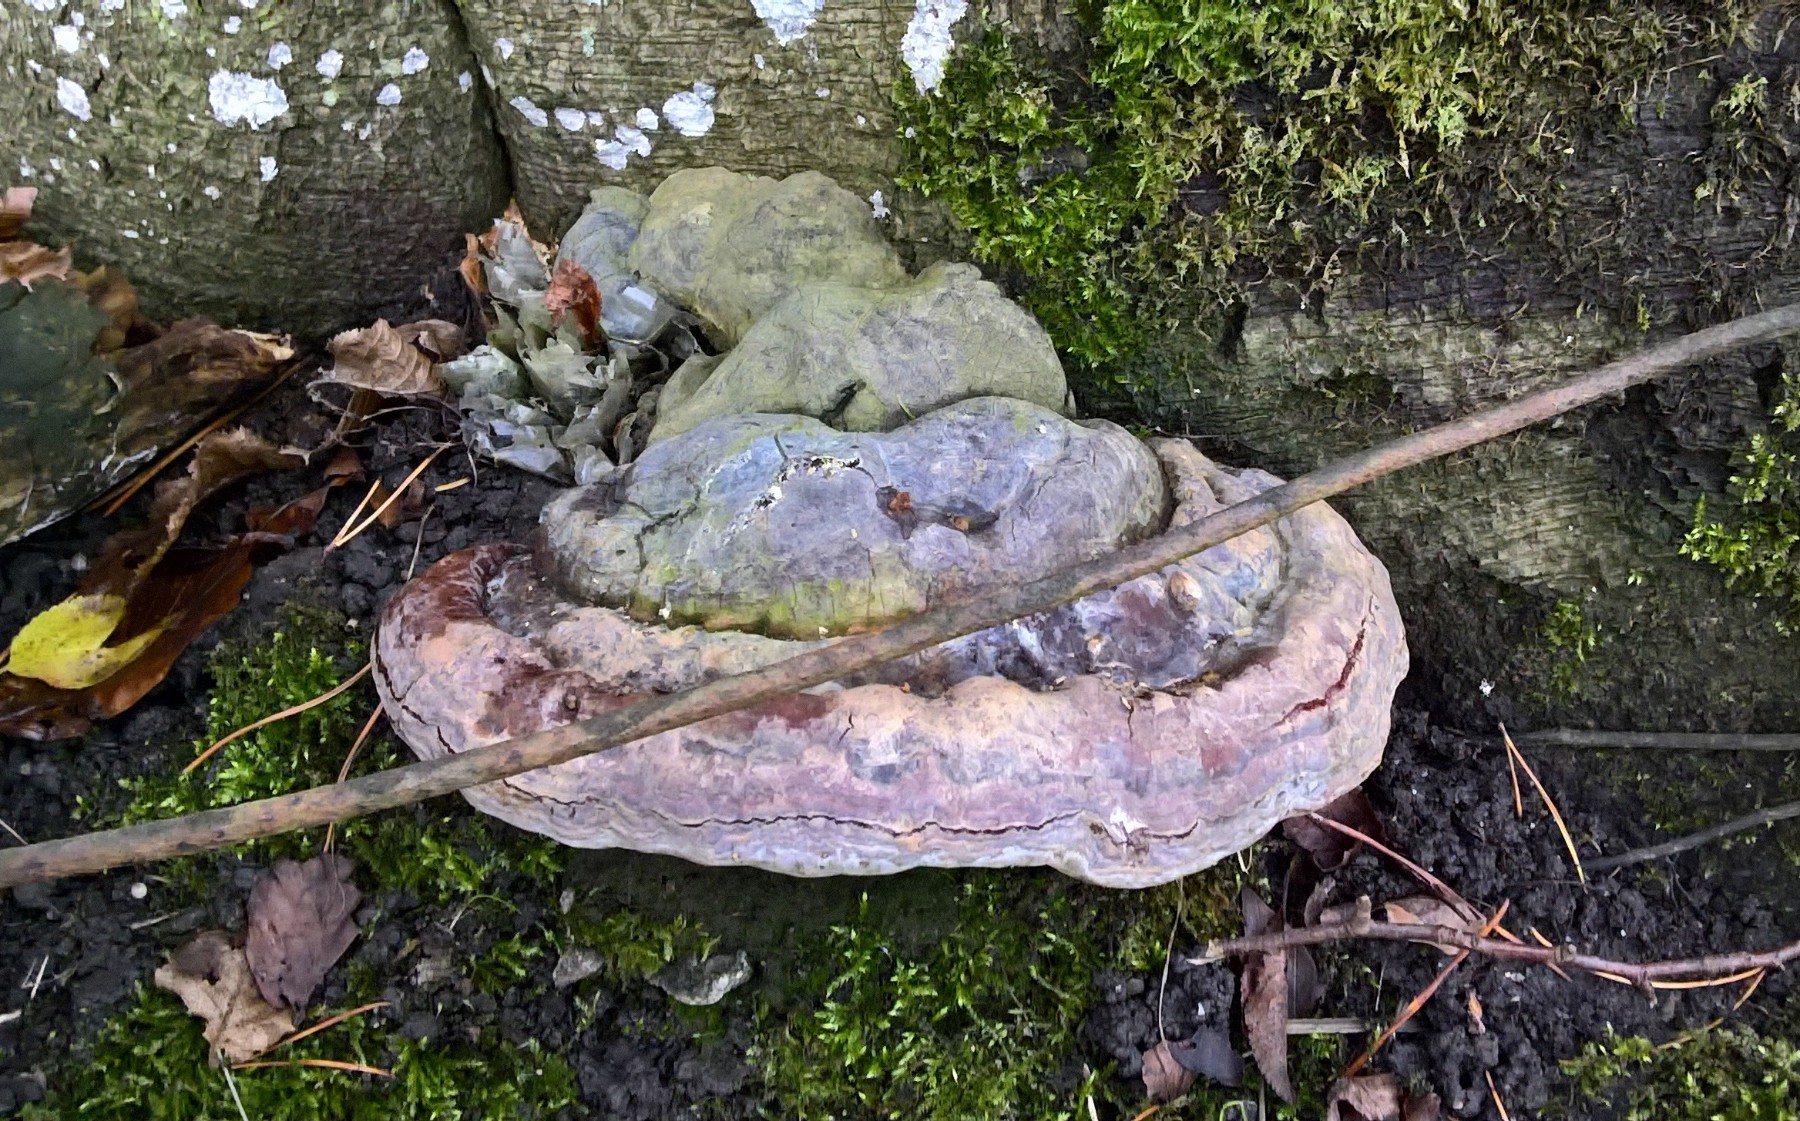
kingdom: Fungi
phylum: Basidiomycota
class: Agaricomycetes
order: Polyporales
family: Polyporaceae
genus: Ganoderma
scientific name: Ganoderma pfeifferi
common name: kobberrød lakporesvamp
